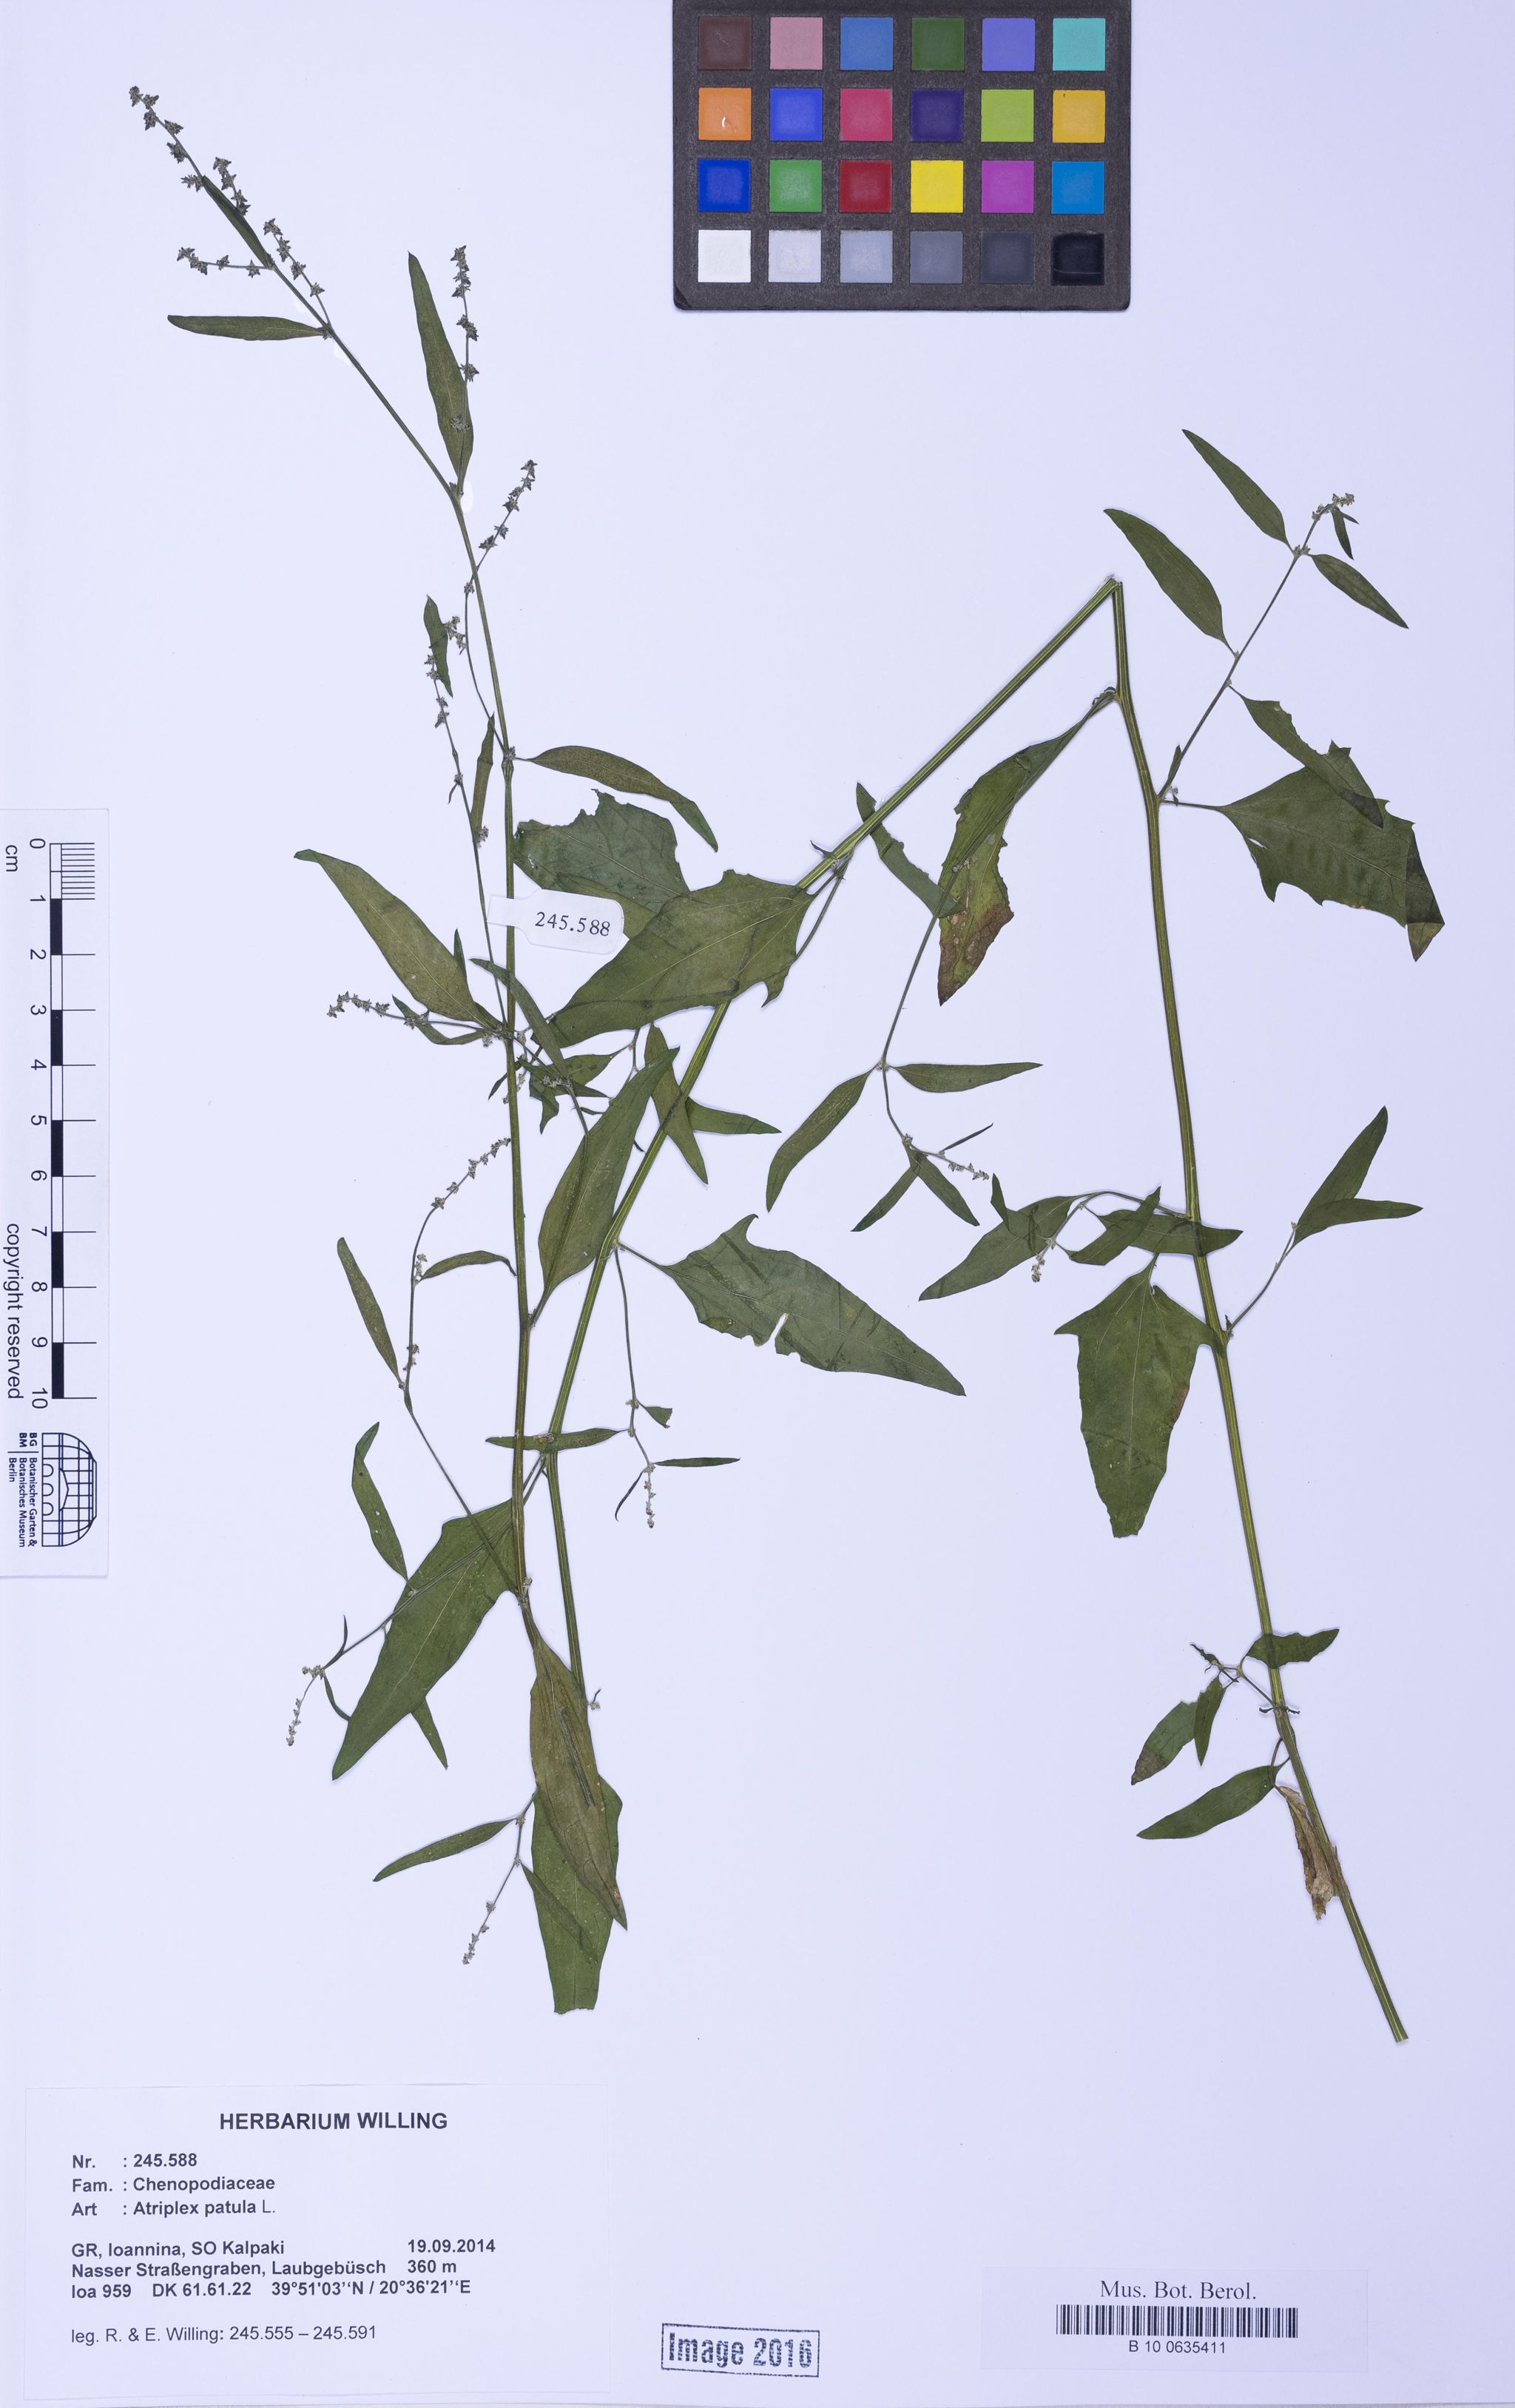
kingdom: Plantae
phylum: Tracheophyta
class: Magnoliopsida
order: Caryophyllales
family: Amaranthaceae
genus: Atriplex
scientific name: Atriplex patula
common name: Common orache
